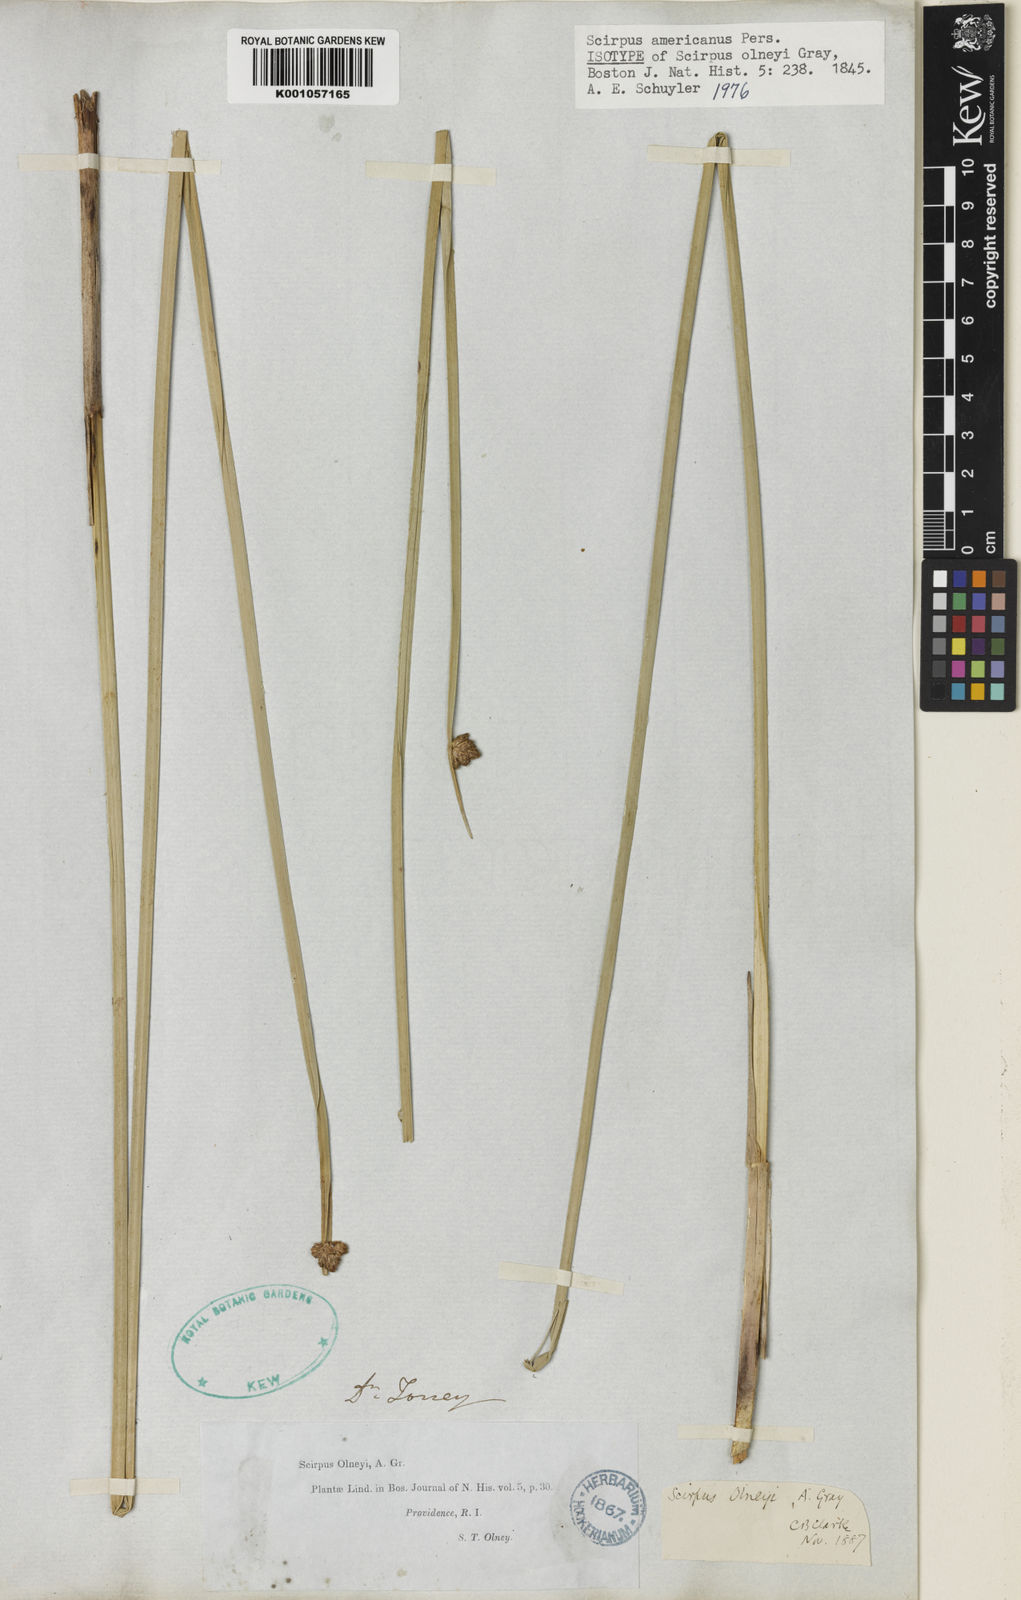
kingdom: Plantae
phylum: Tracheophyta
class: Liliopsida
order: Poales
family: Cyperaceae
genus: Schoenoplectus
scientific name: Schoenoplectus
